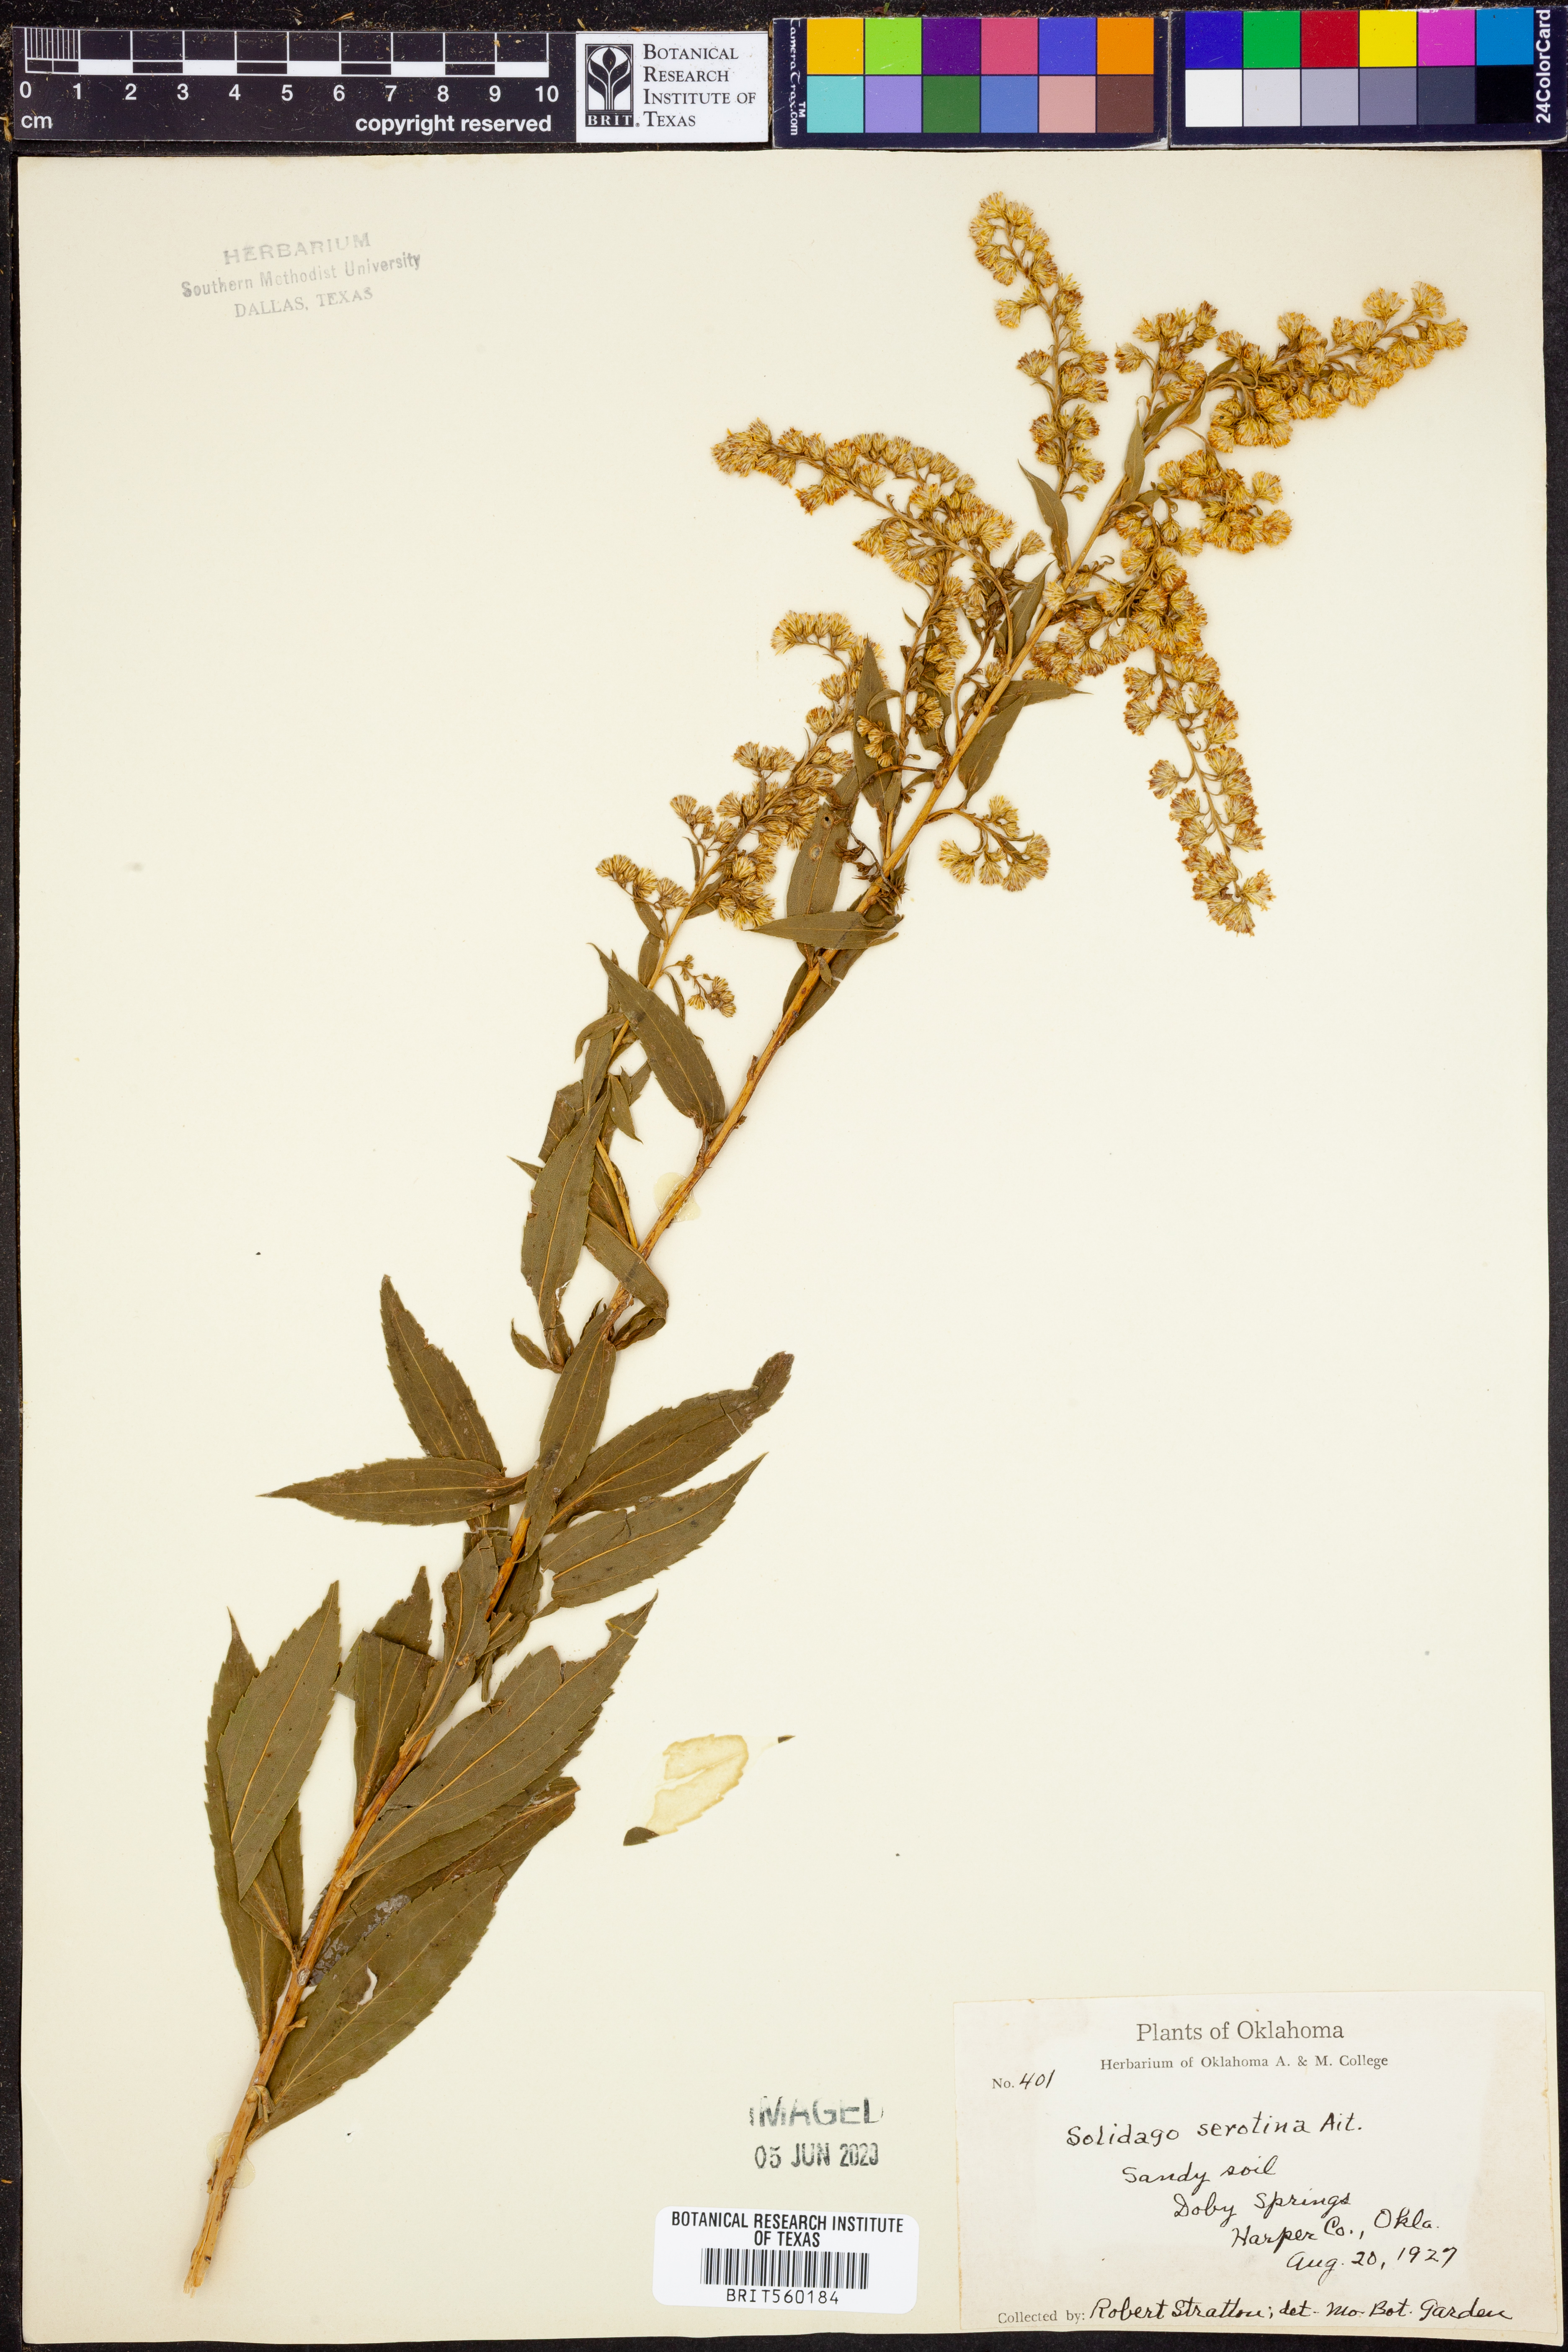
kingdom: Plantae
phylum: Tracheophyta
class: Magnoliopsida
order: Asterales
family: Asteraceae
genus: Solidago
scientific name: Solidago gigantea
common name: Giant goldenrod
